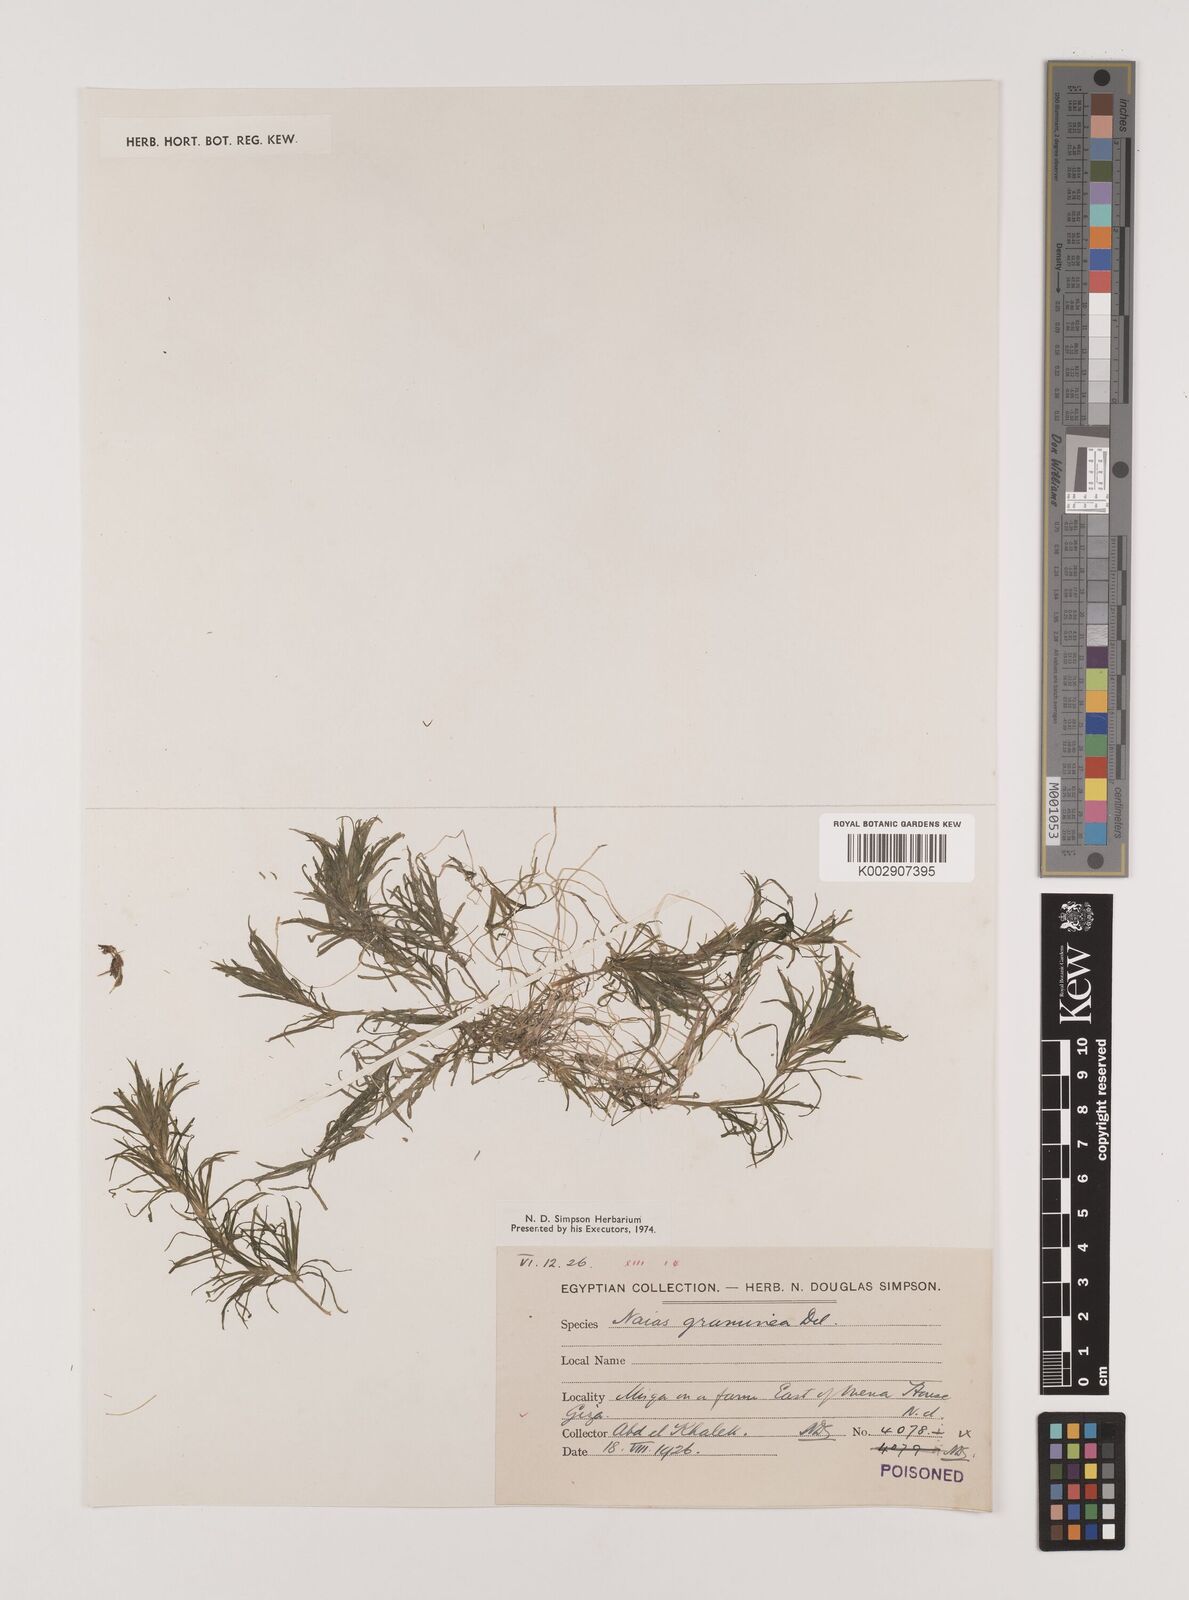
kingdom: Plantae
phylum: Tracheophyta
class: Liliopsida
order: Alismatales
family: Hydrocharitaceae
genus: Najas
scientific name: Najas graminea
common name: Ricefield waternymph
